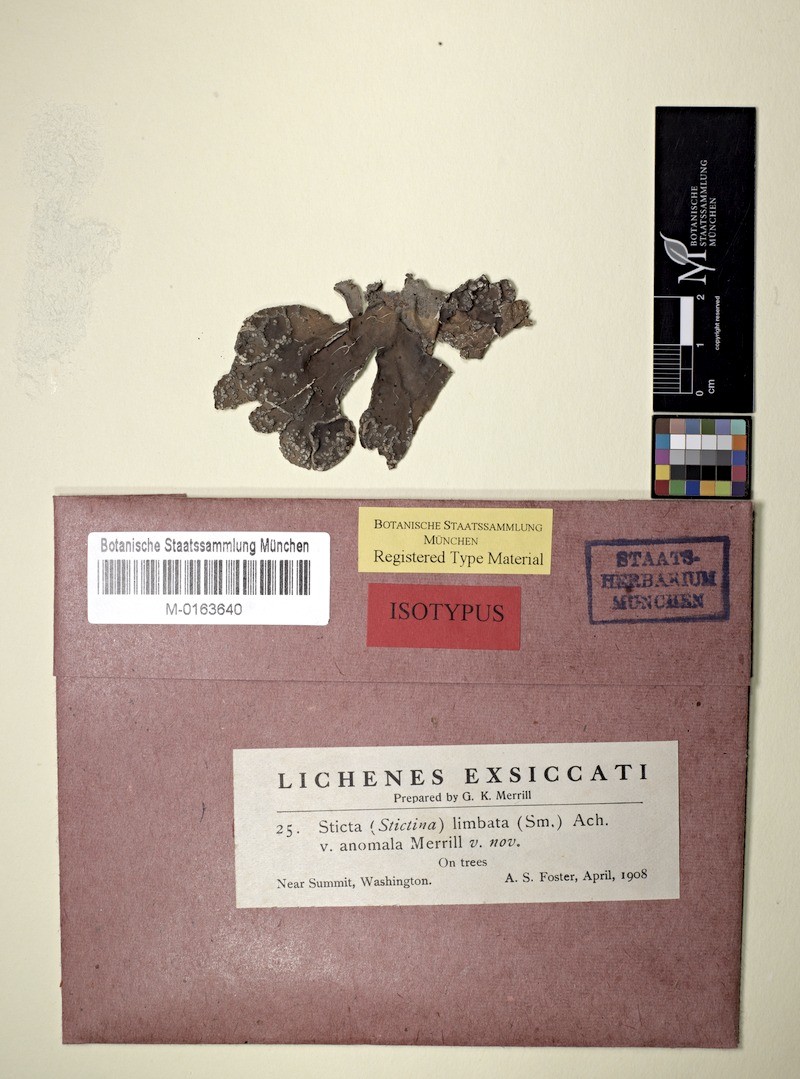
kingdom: Fungi
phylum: Ascomycota
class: Lecanoromycetes
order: Peltigerales
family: Lobariaceae
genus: Lobaria
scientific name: Lobaria anomala
